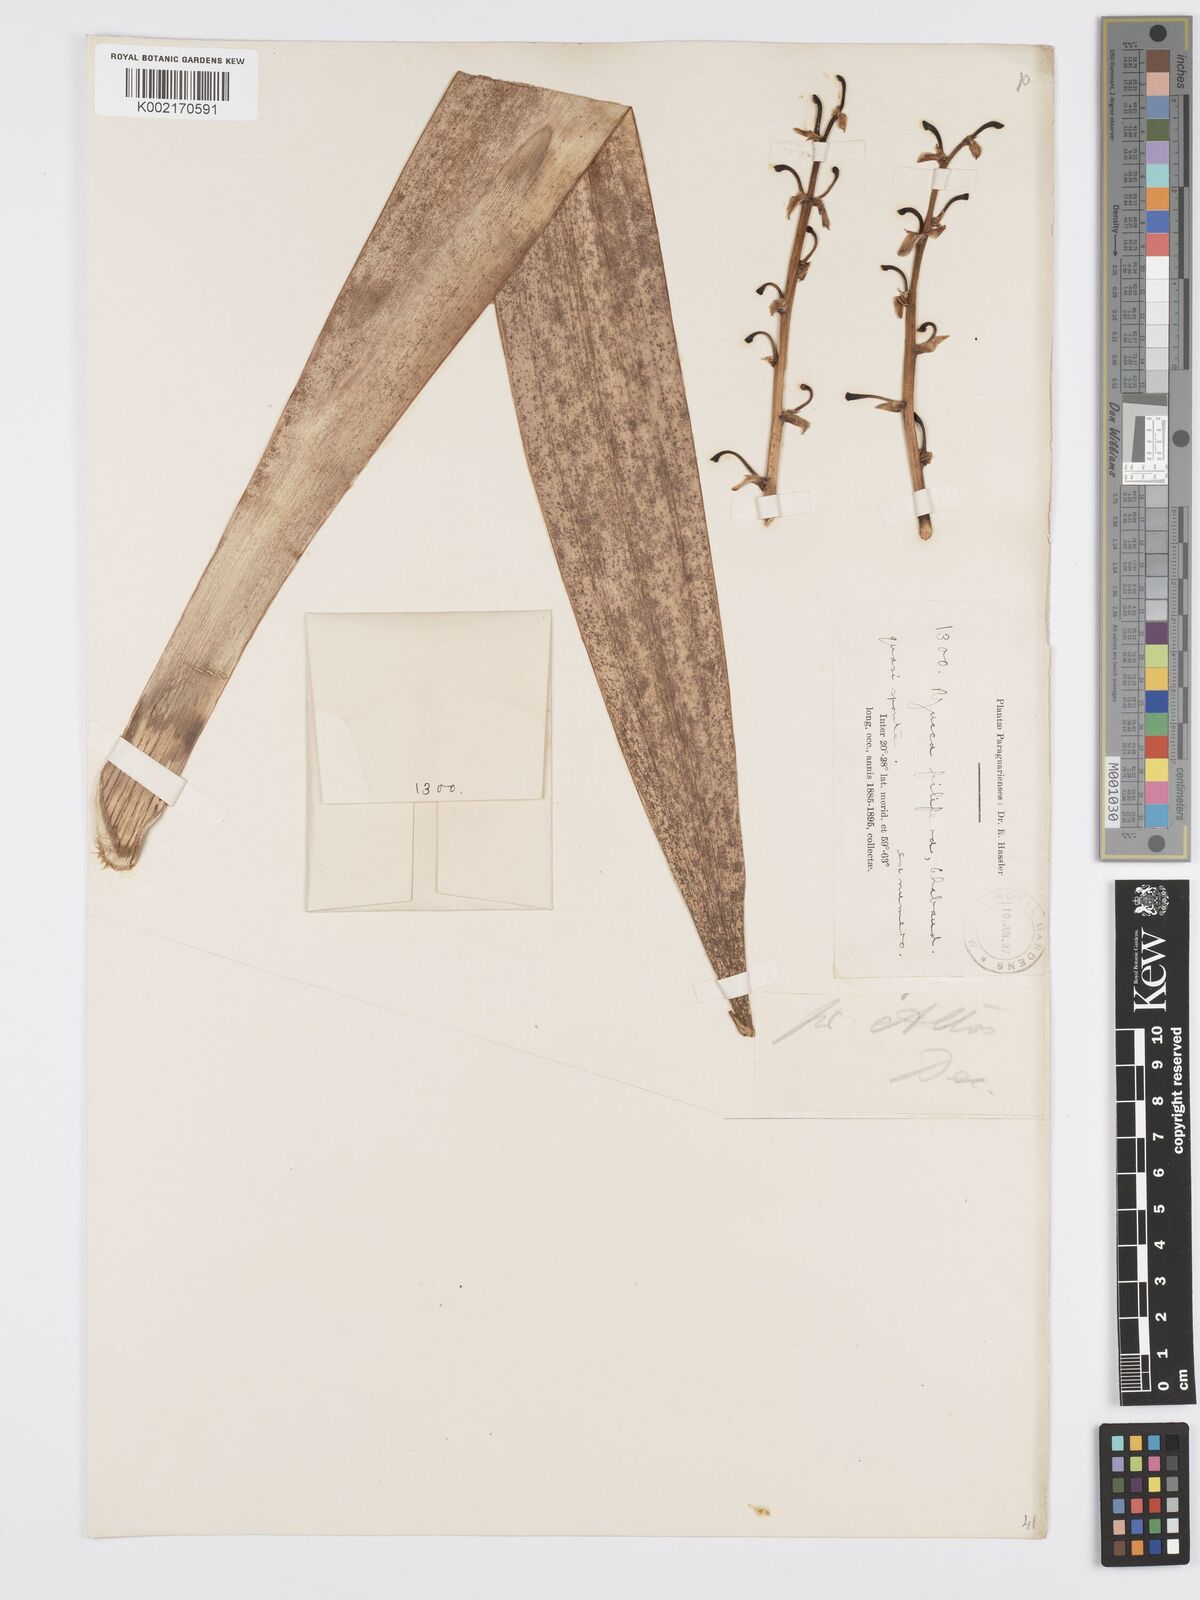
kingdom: Plantae
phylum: Tracheophyta
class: Liliopsida
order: Asparagales
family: Asparagaceae
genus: Yucca
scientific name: Yucca filifera
